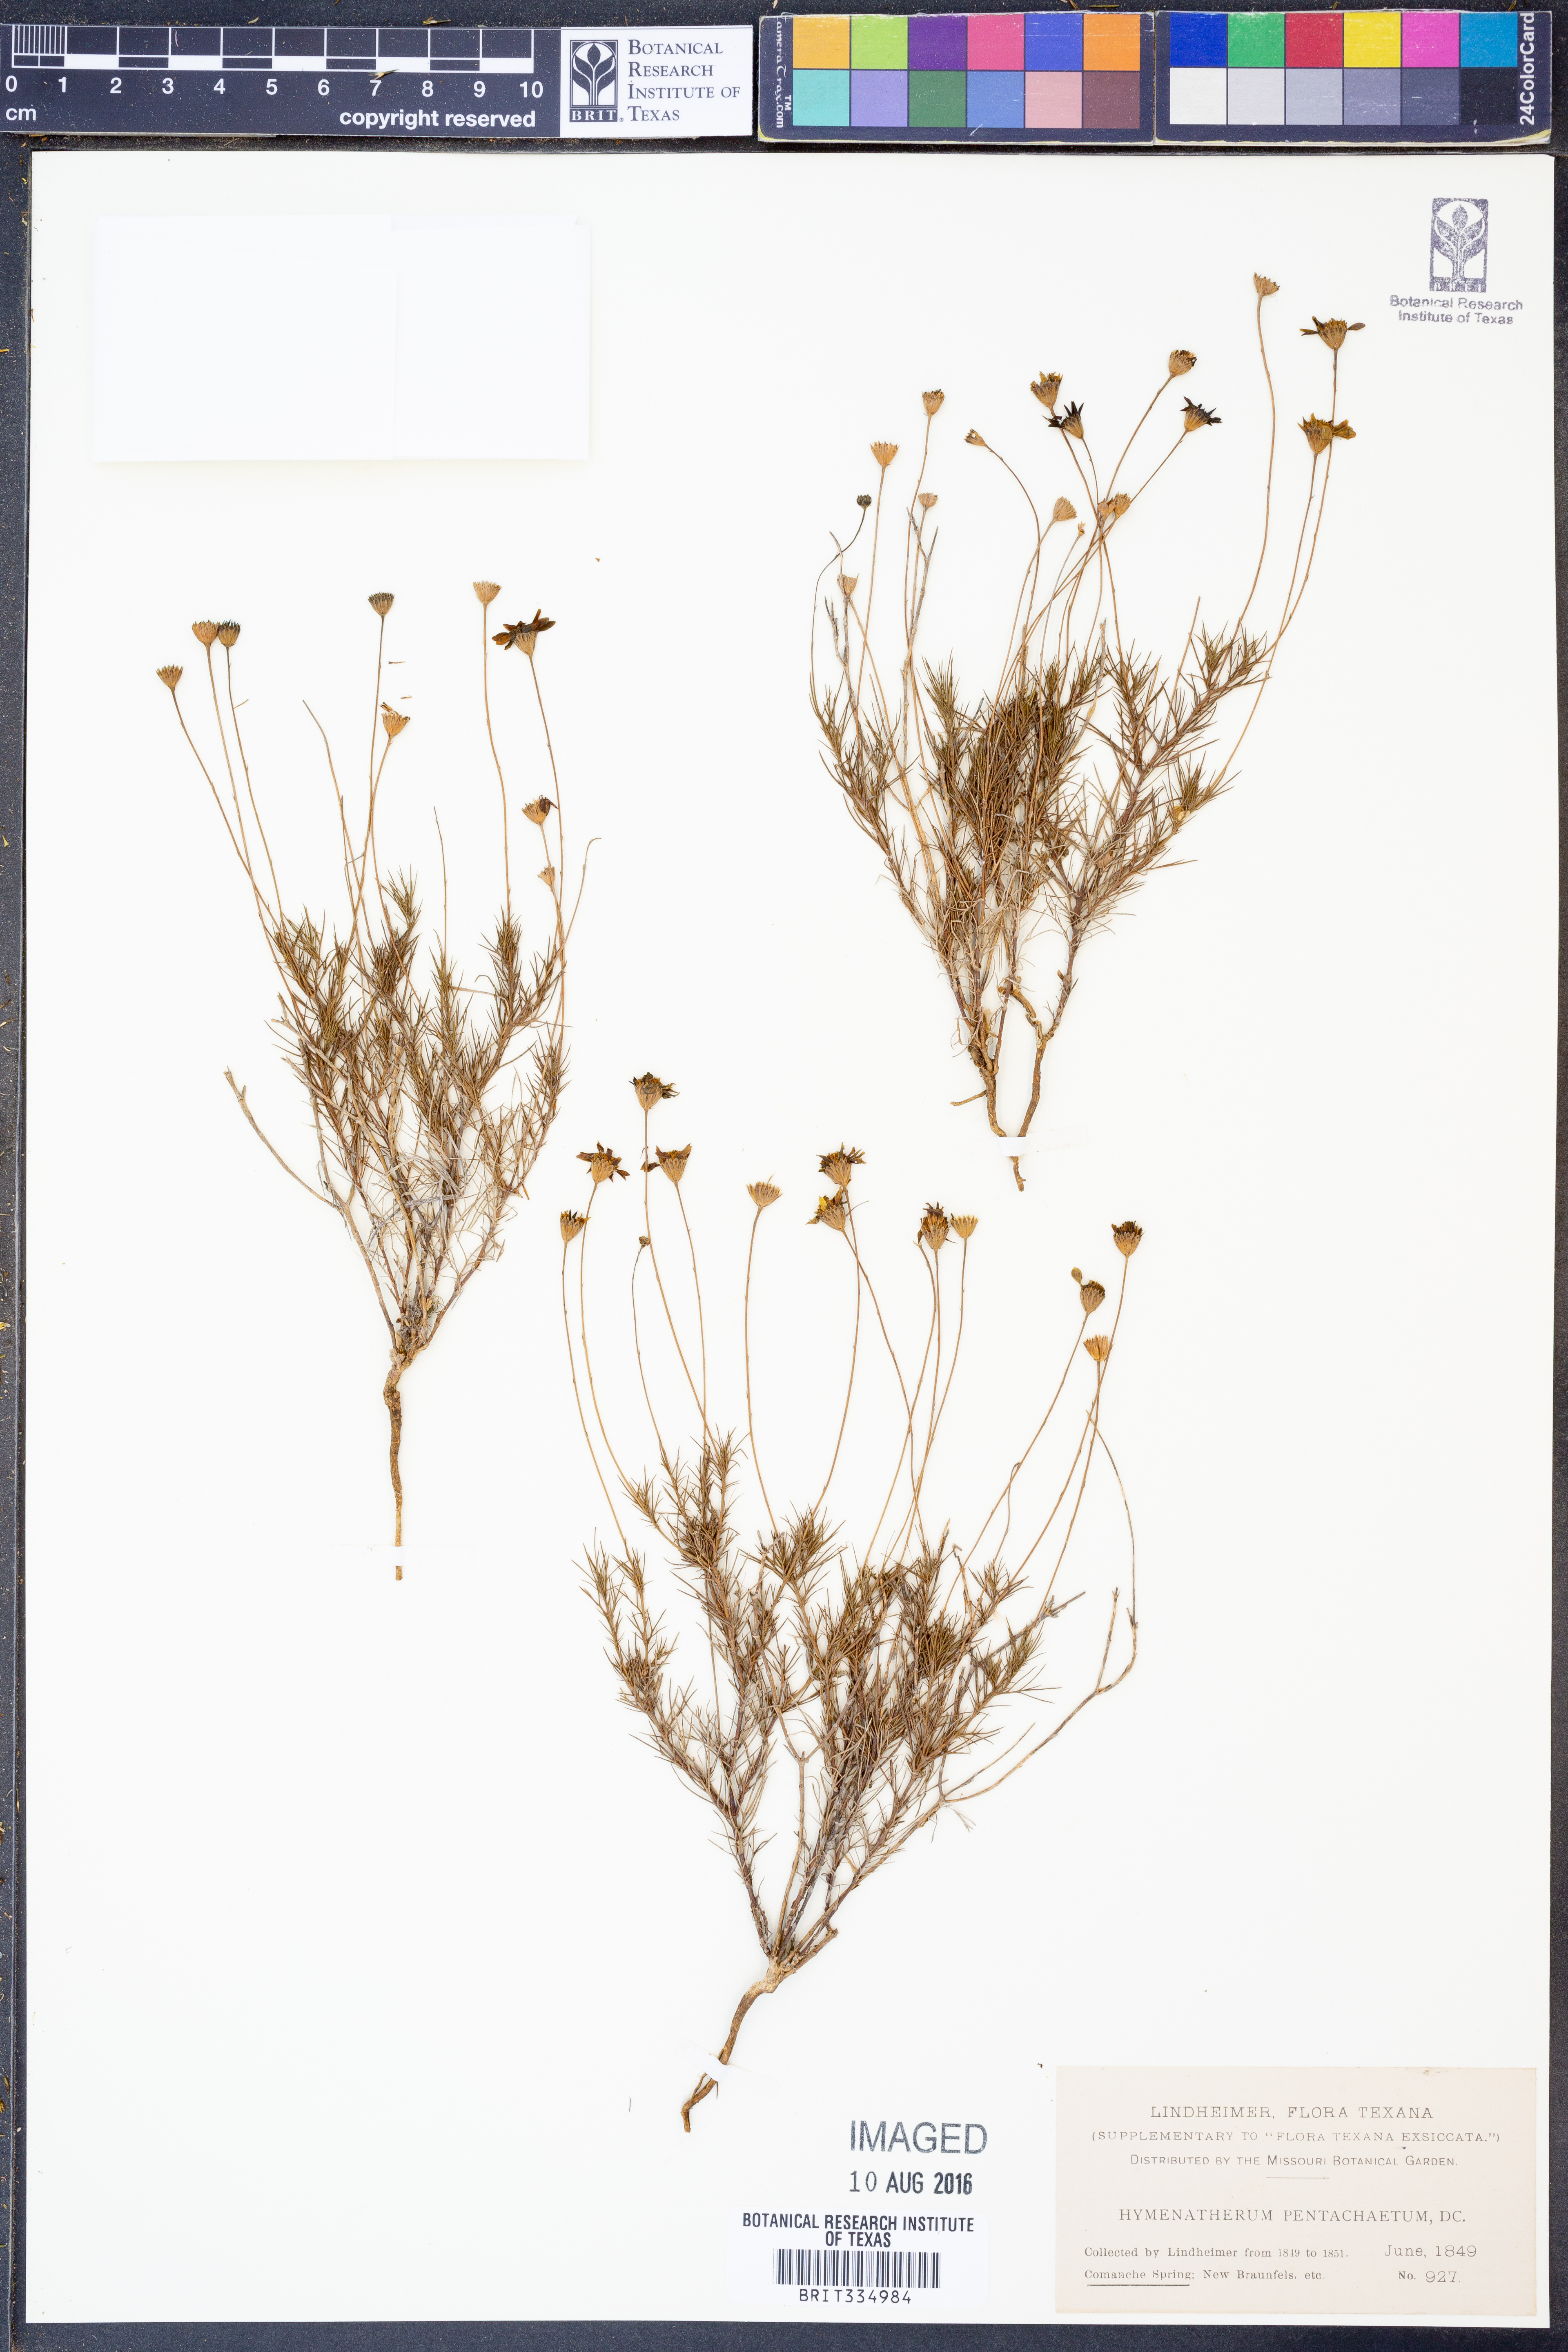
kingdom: Plantae
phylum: Tracheophyta
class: Magnoliopsida
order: Asterales
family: Asteraceae
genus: Thymophylla
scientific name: Thymophylla pentachaeta
